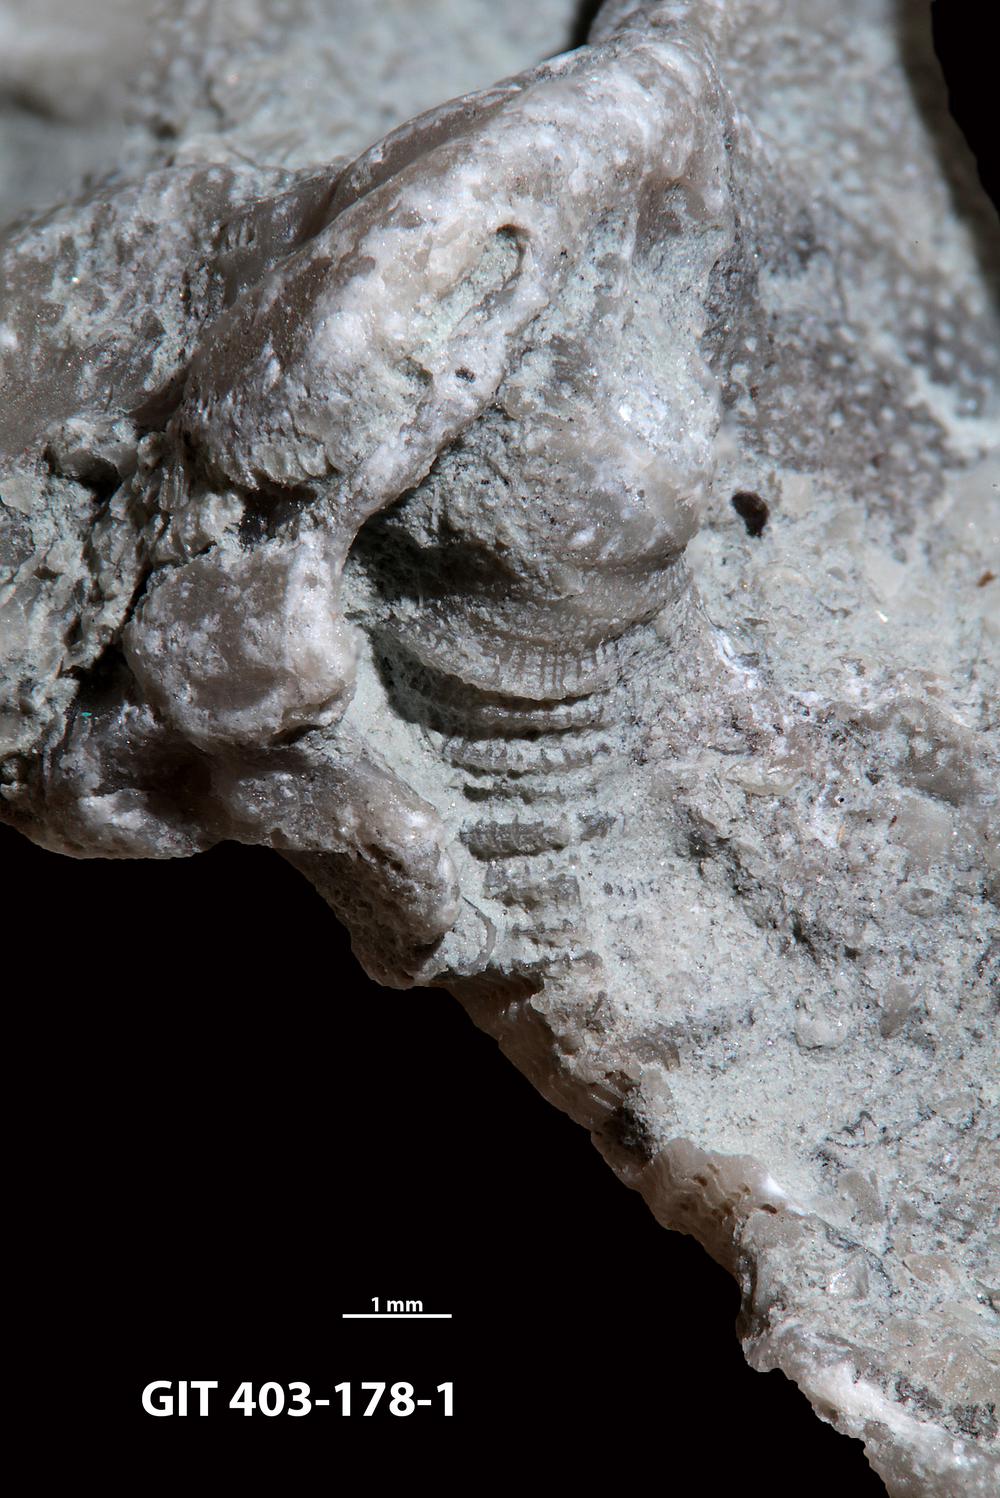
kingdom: Animalia
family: Cornulitidae
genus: Cornulites
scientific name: Cornulites
